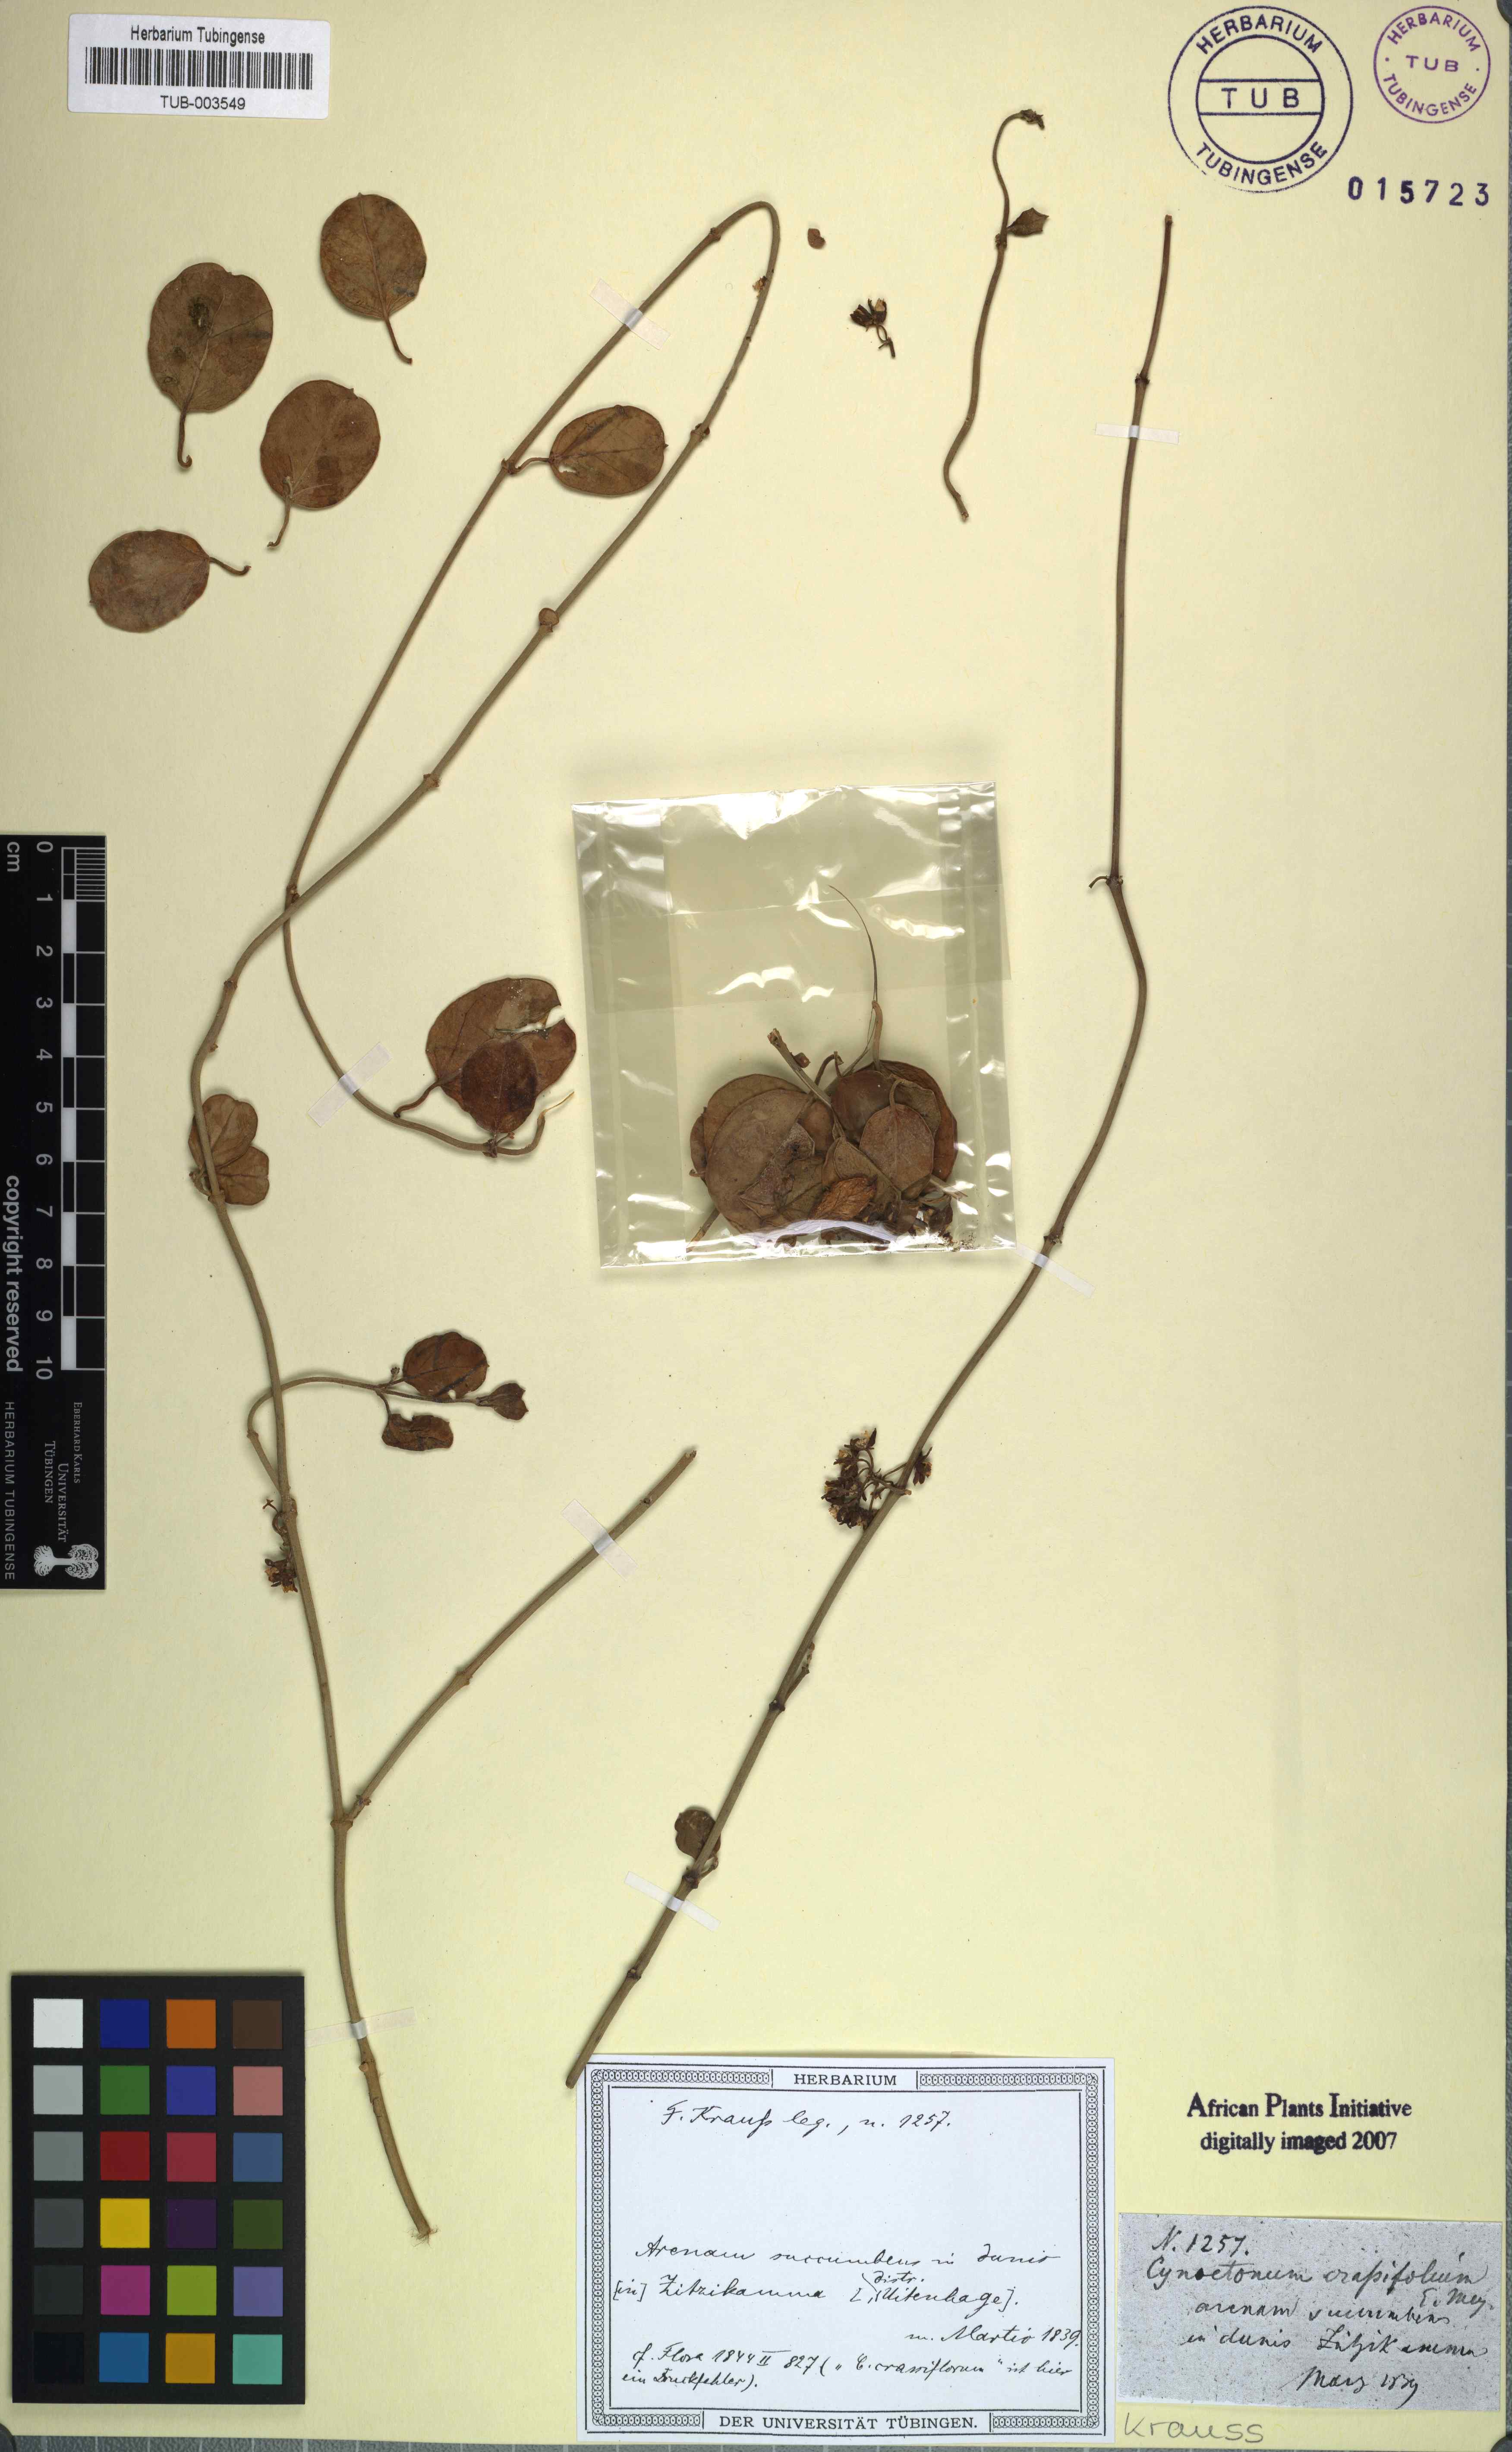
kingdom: Plantae
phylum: Tracheophyta
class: Magnoliopsida
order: Gentianales
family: Apocynaceae
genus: Cynanchum
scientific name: Cynanchum obtusifolium
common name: Monkey-rope
